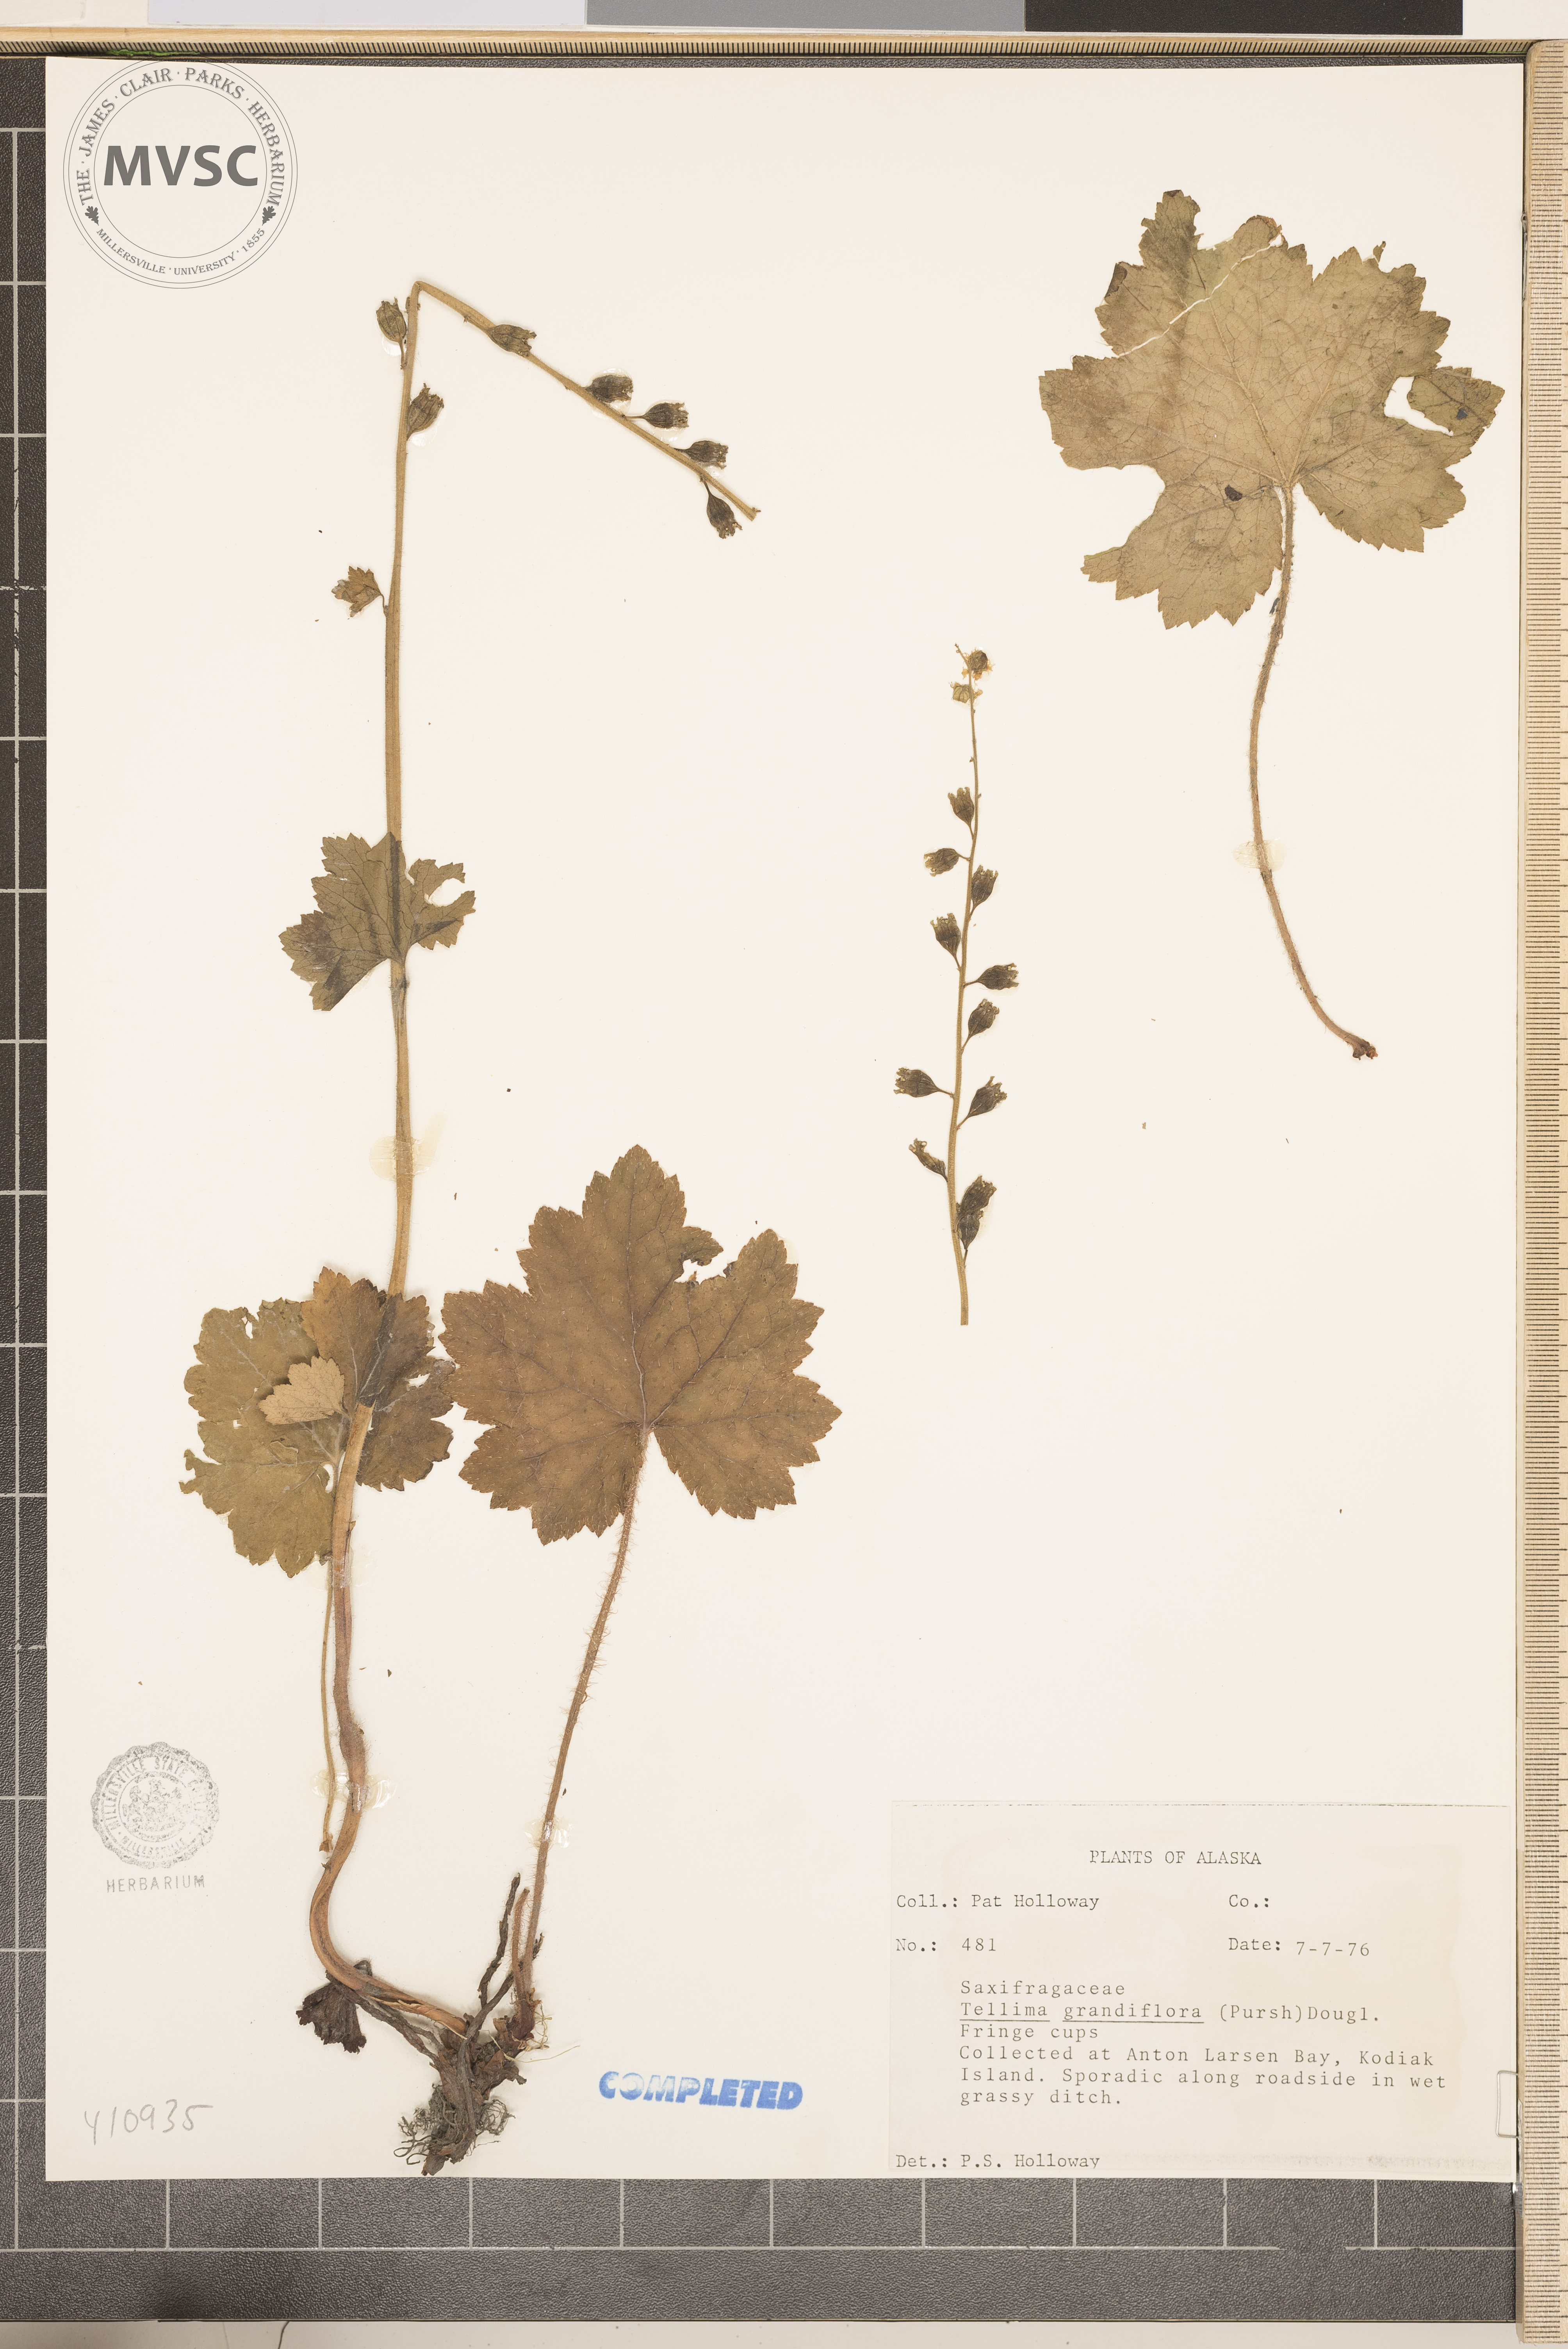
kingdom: Plantae
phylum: Tracheophyta
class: Magnoliopsida
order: Saxifragales
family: Saxifragaceae
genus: Tellima
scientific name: Tellima grandiflora
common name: Fringecups
